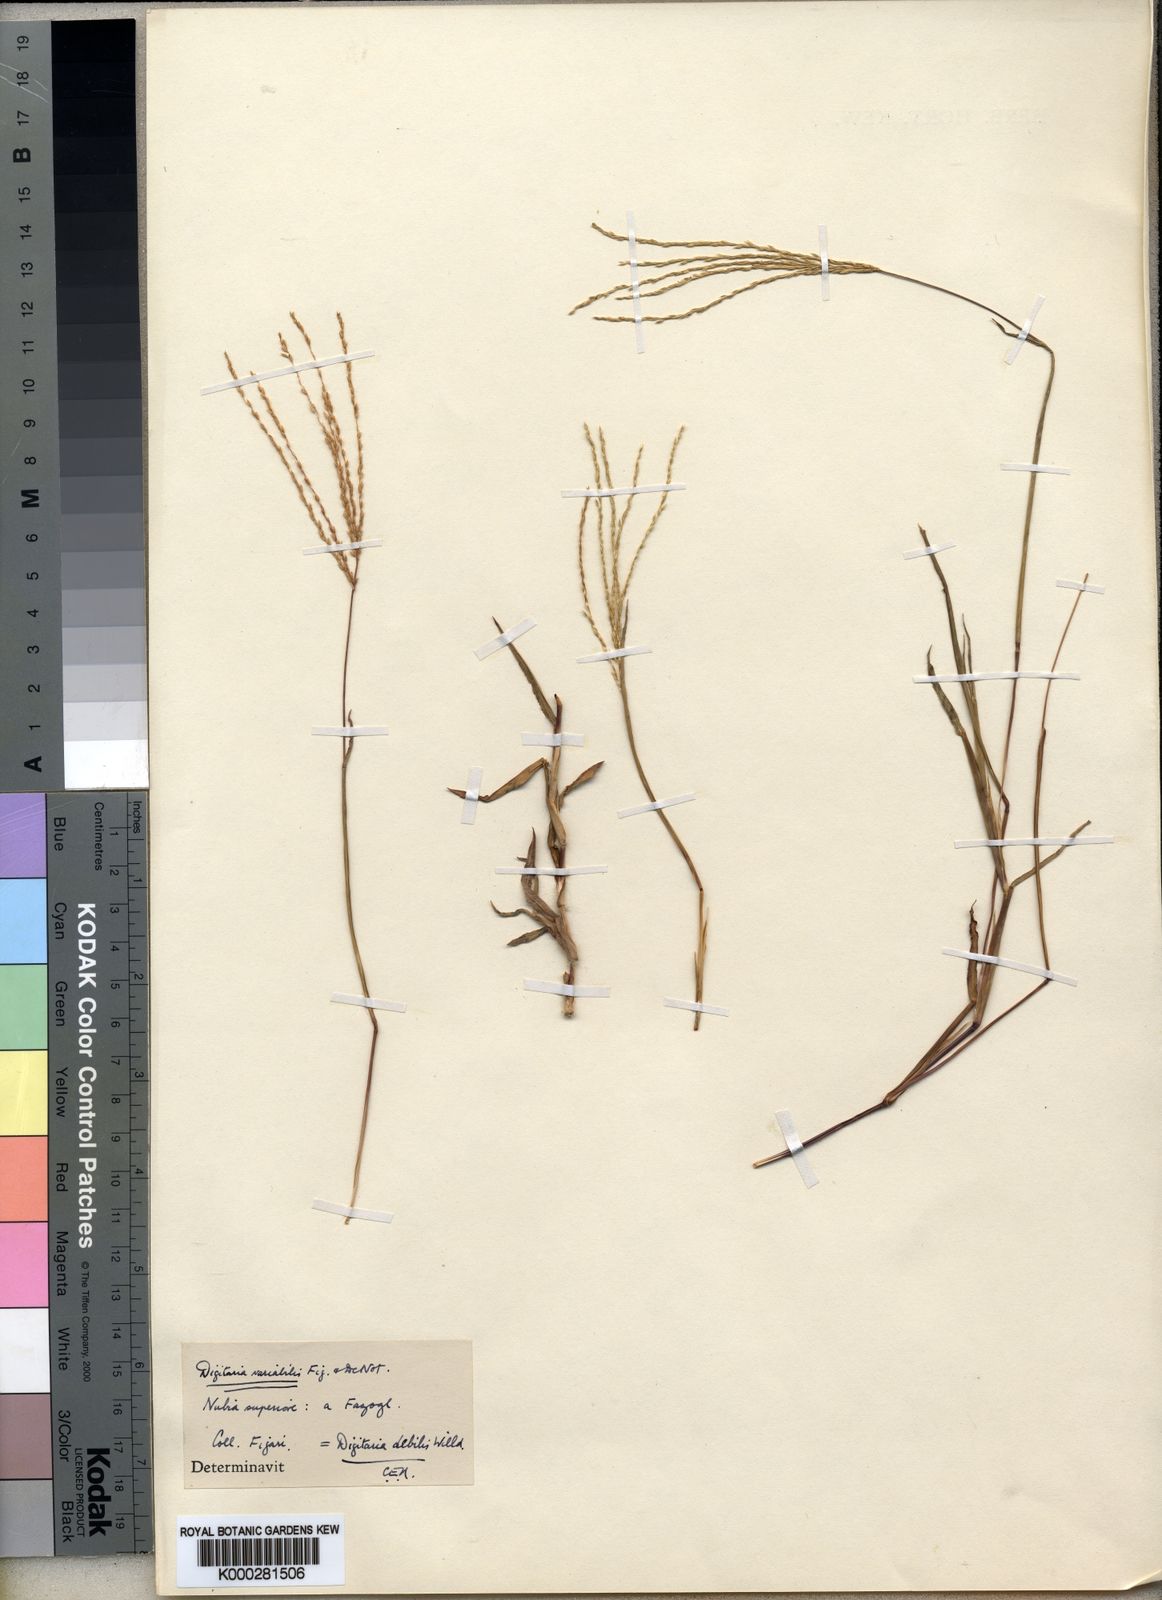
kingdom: Plantae
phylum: Tracheophyta
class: Liliopsida
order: Poales
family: Poaceae
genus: Digitaria
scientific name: Digitaria debilis
